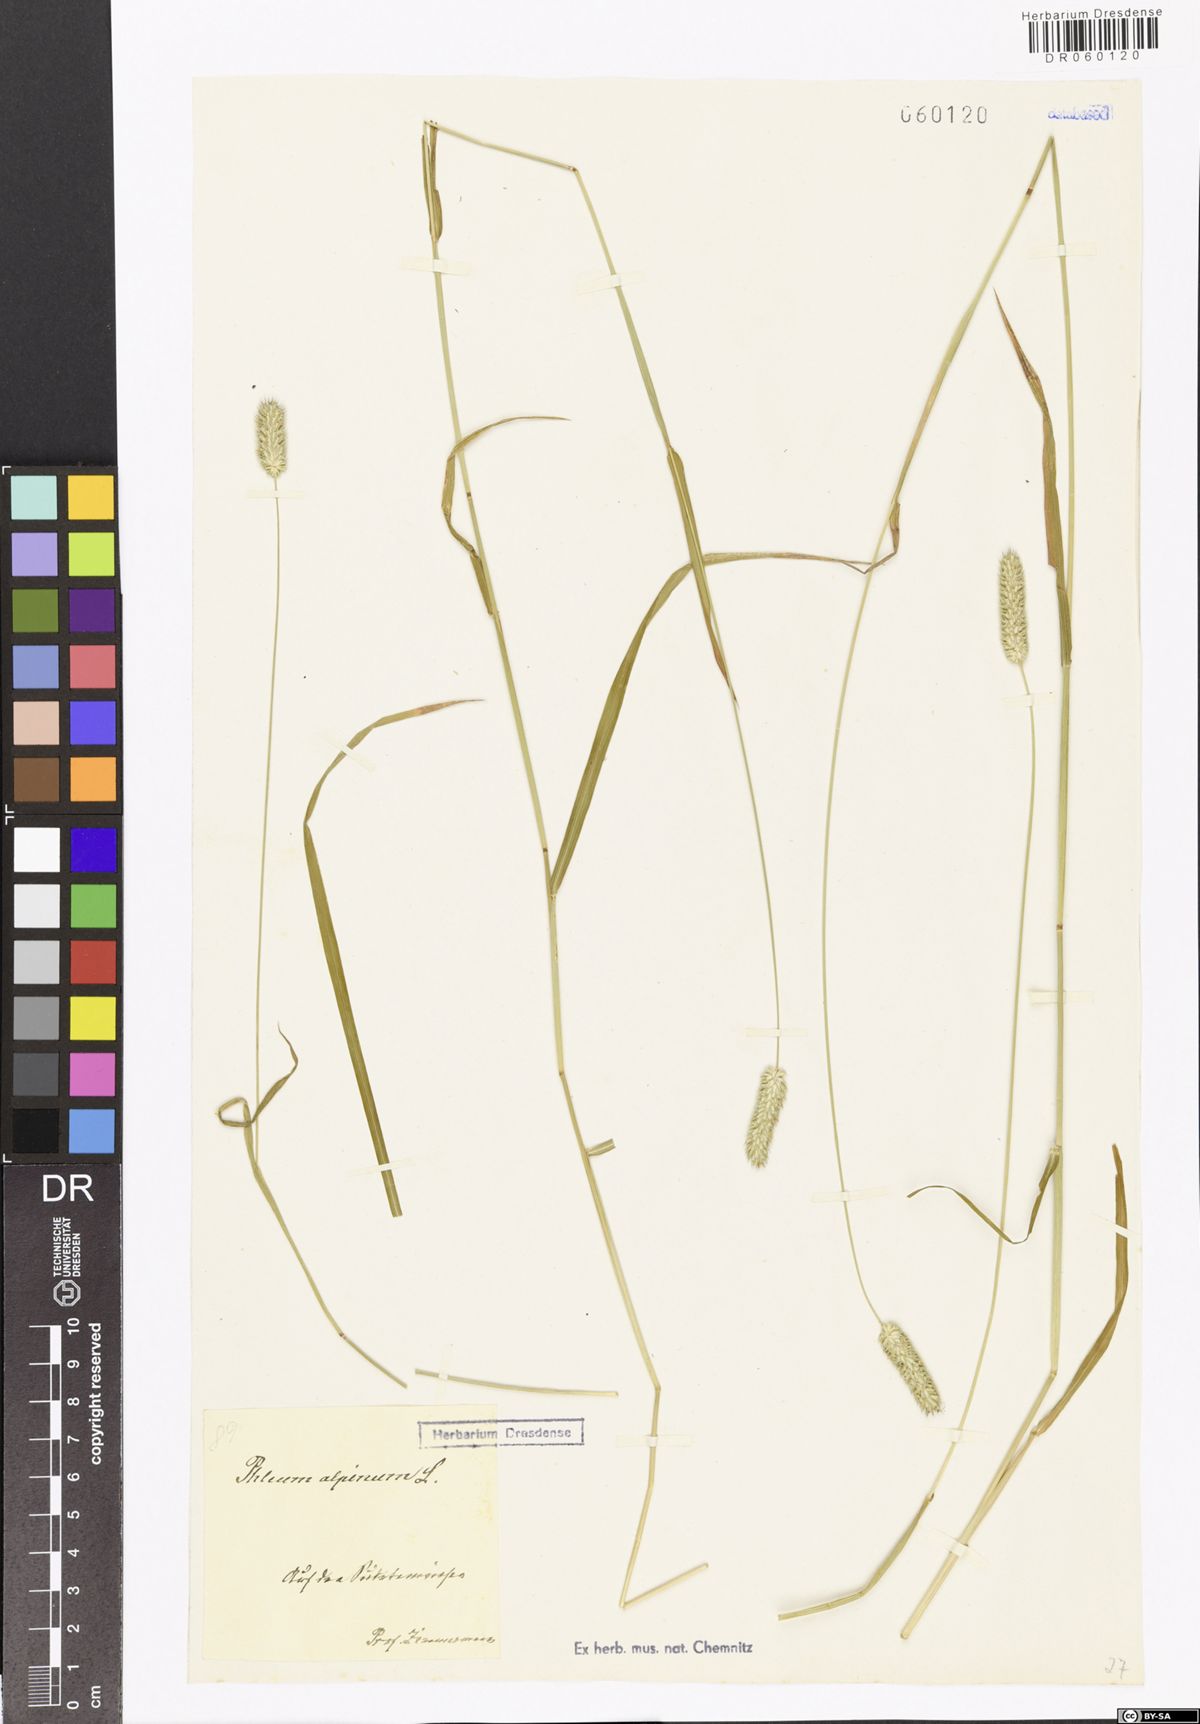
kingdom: Plantae
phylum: Tracheophyta
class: Liliopsida
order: Poales
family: Poaceae
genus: Phleum
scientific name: Phleum alpinum
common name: Alpine cat's-tail
